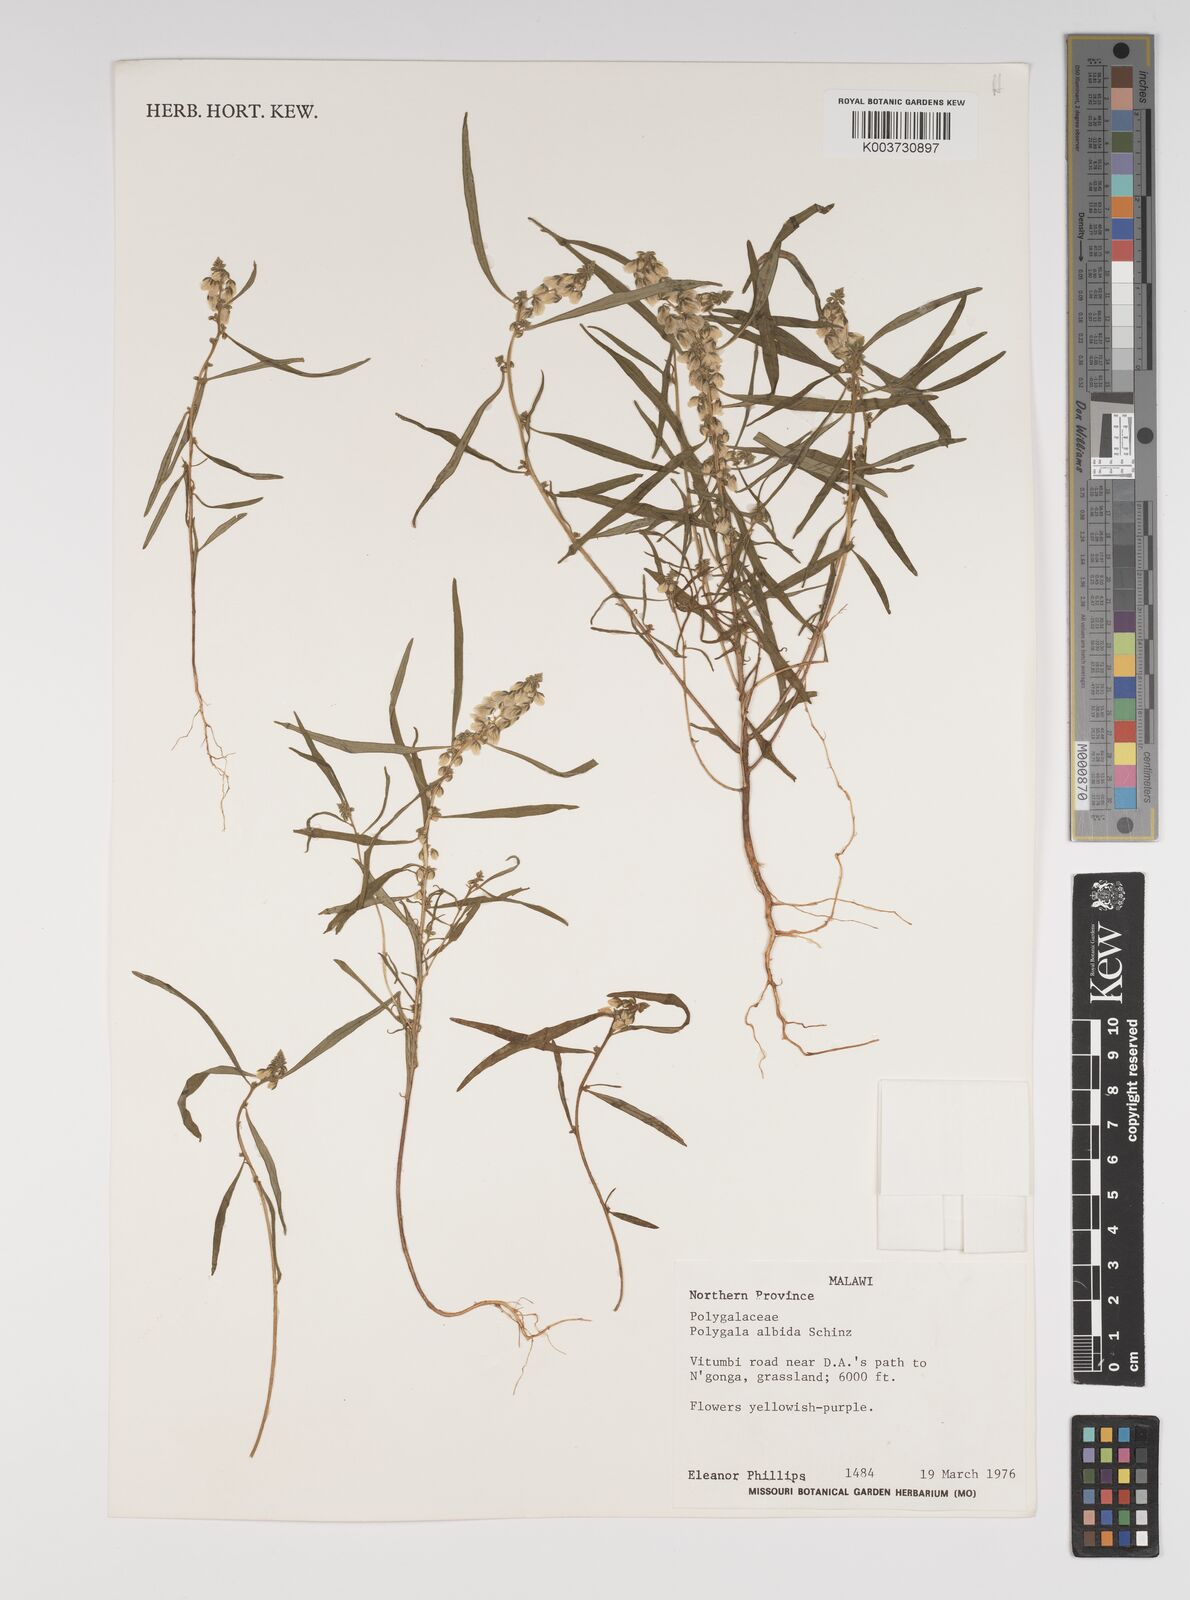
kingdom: Plantae
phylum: Tracheophyta
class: Magnoliopsida
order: Fabales
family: Polygalaceae
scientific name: Polygalaceae
